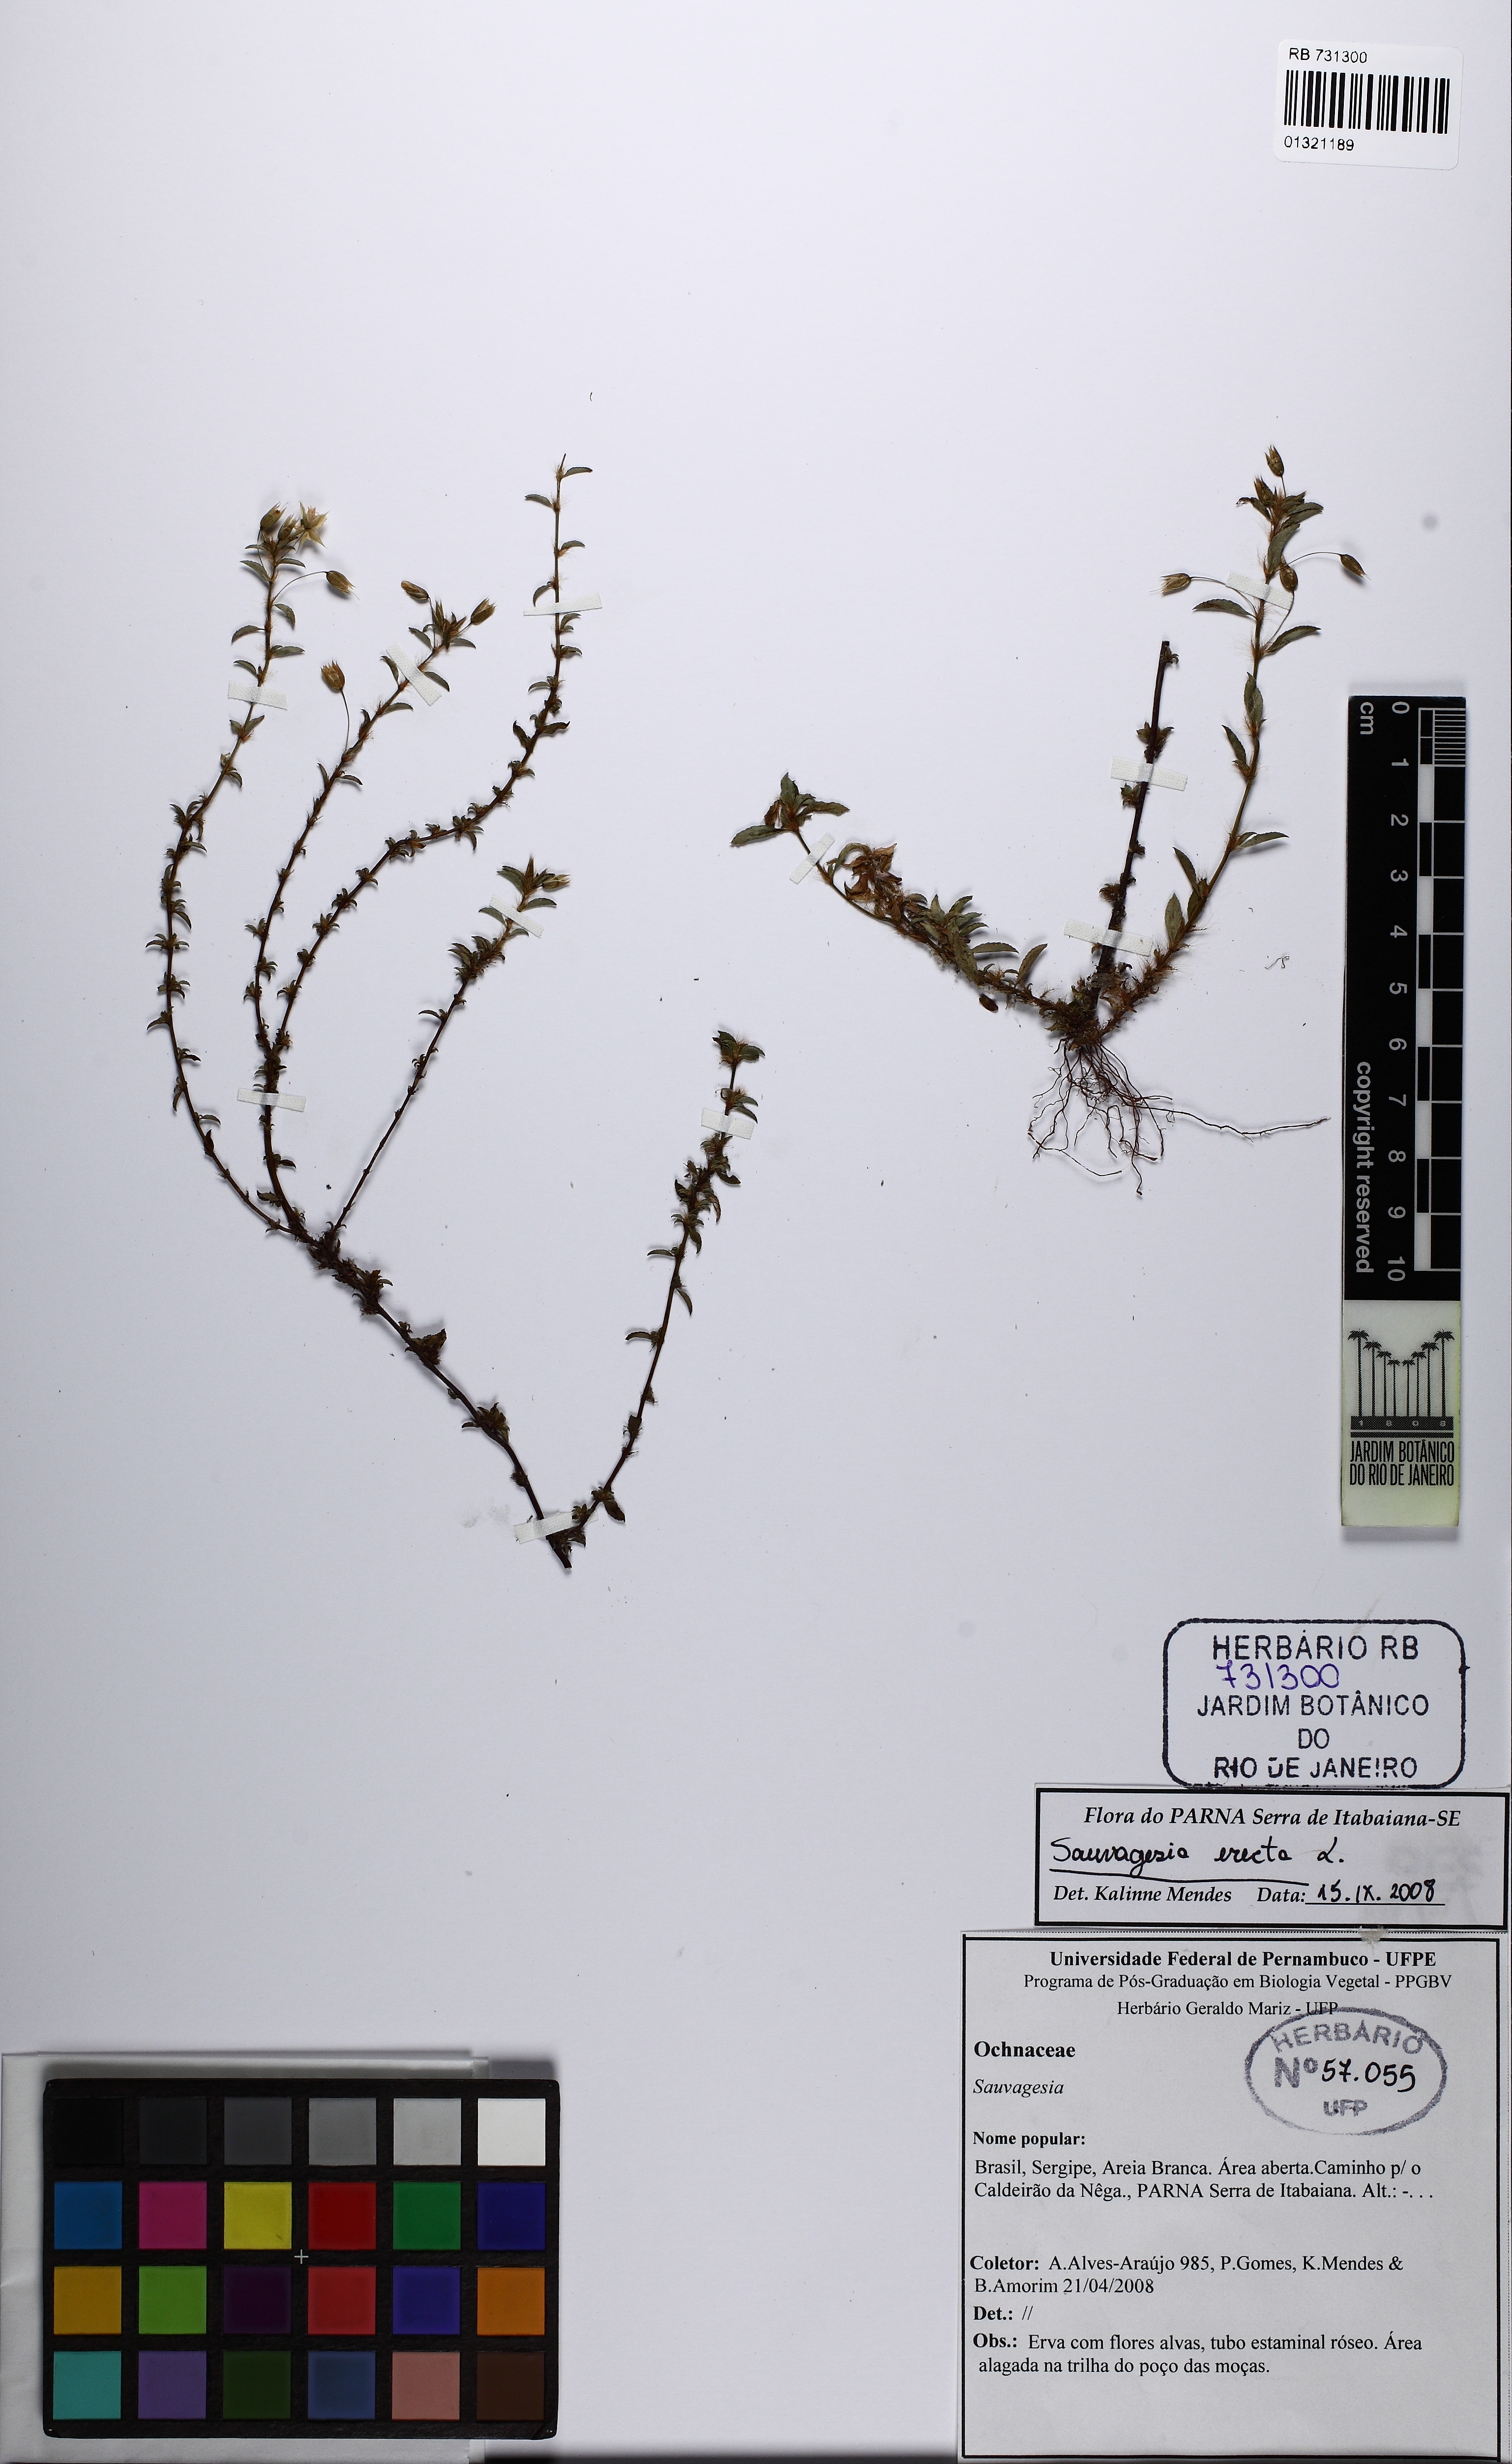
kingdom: Plantae
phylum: Tracheophyta
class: Magnoliopsida
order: Malpighiales
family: Ochnaceae
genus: Sauvagesia
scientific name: Sauvagesia erecta
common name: Creole tea
